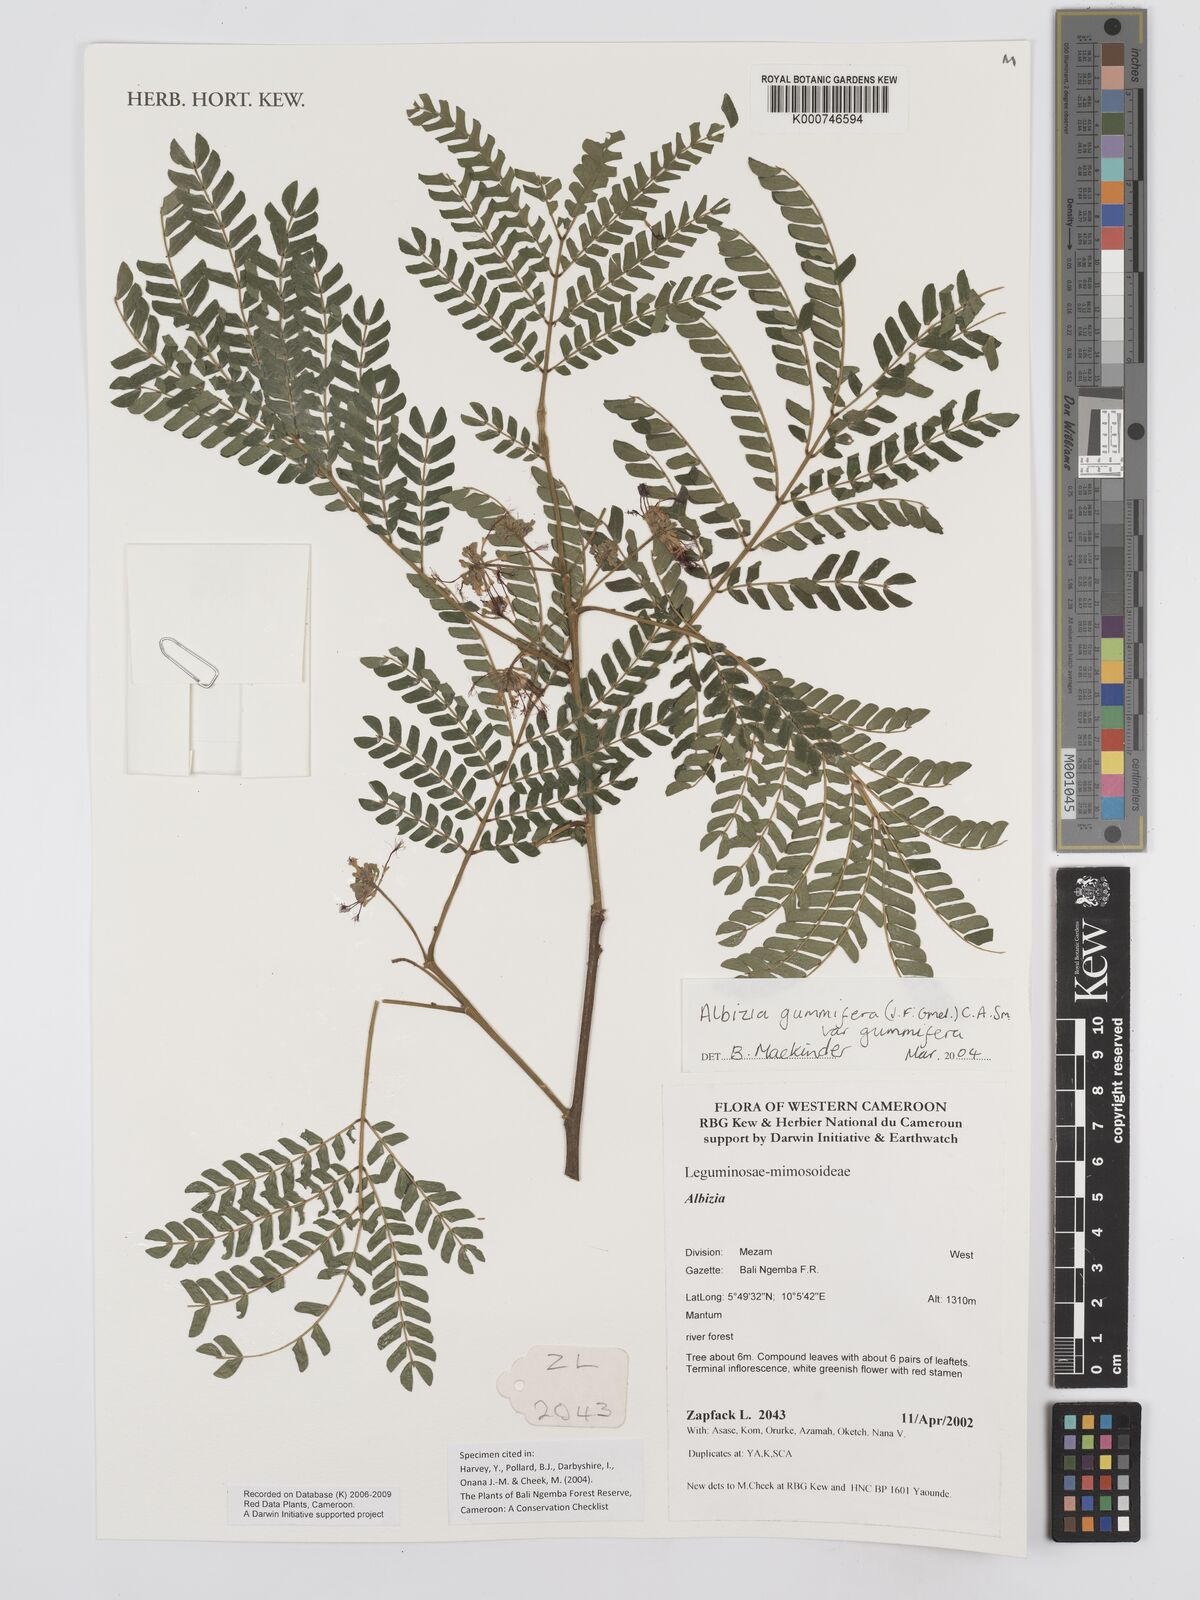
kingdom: Plantae
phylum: Tracheophyta
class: Magnoliopsida
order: Fabales
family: Fabaceae
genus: Albizia
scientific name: Albizia gummifera
